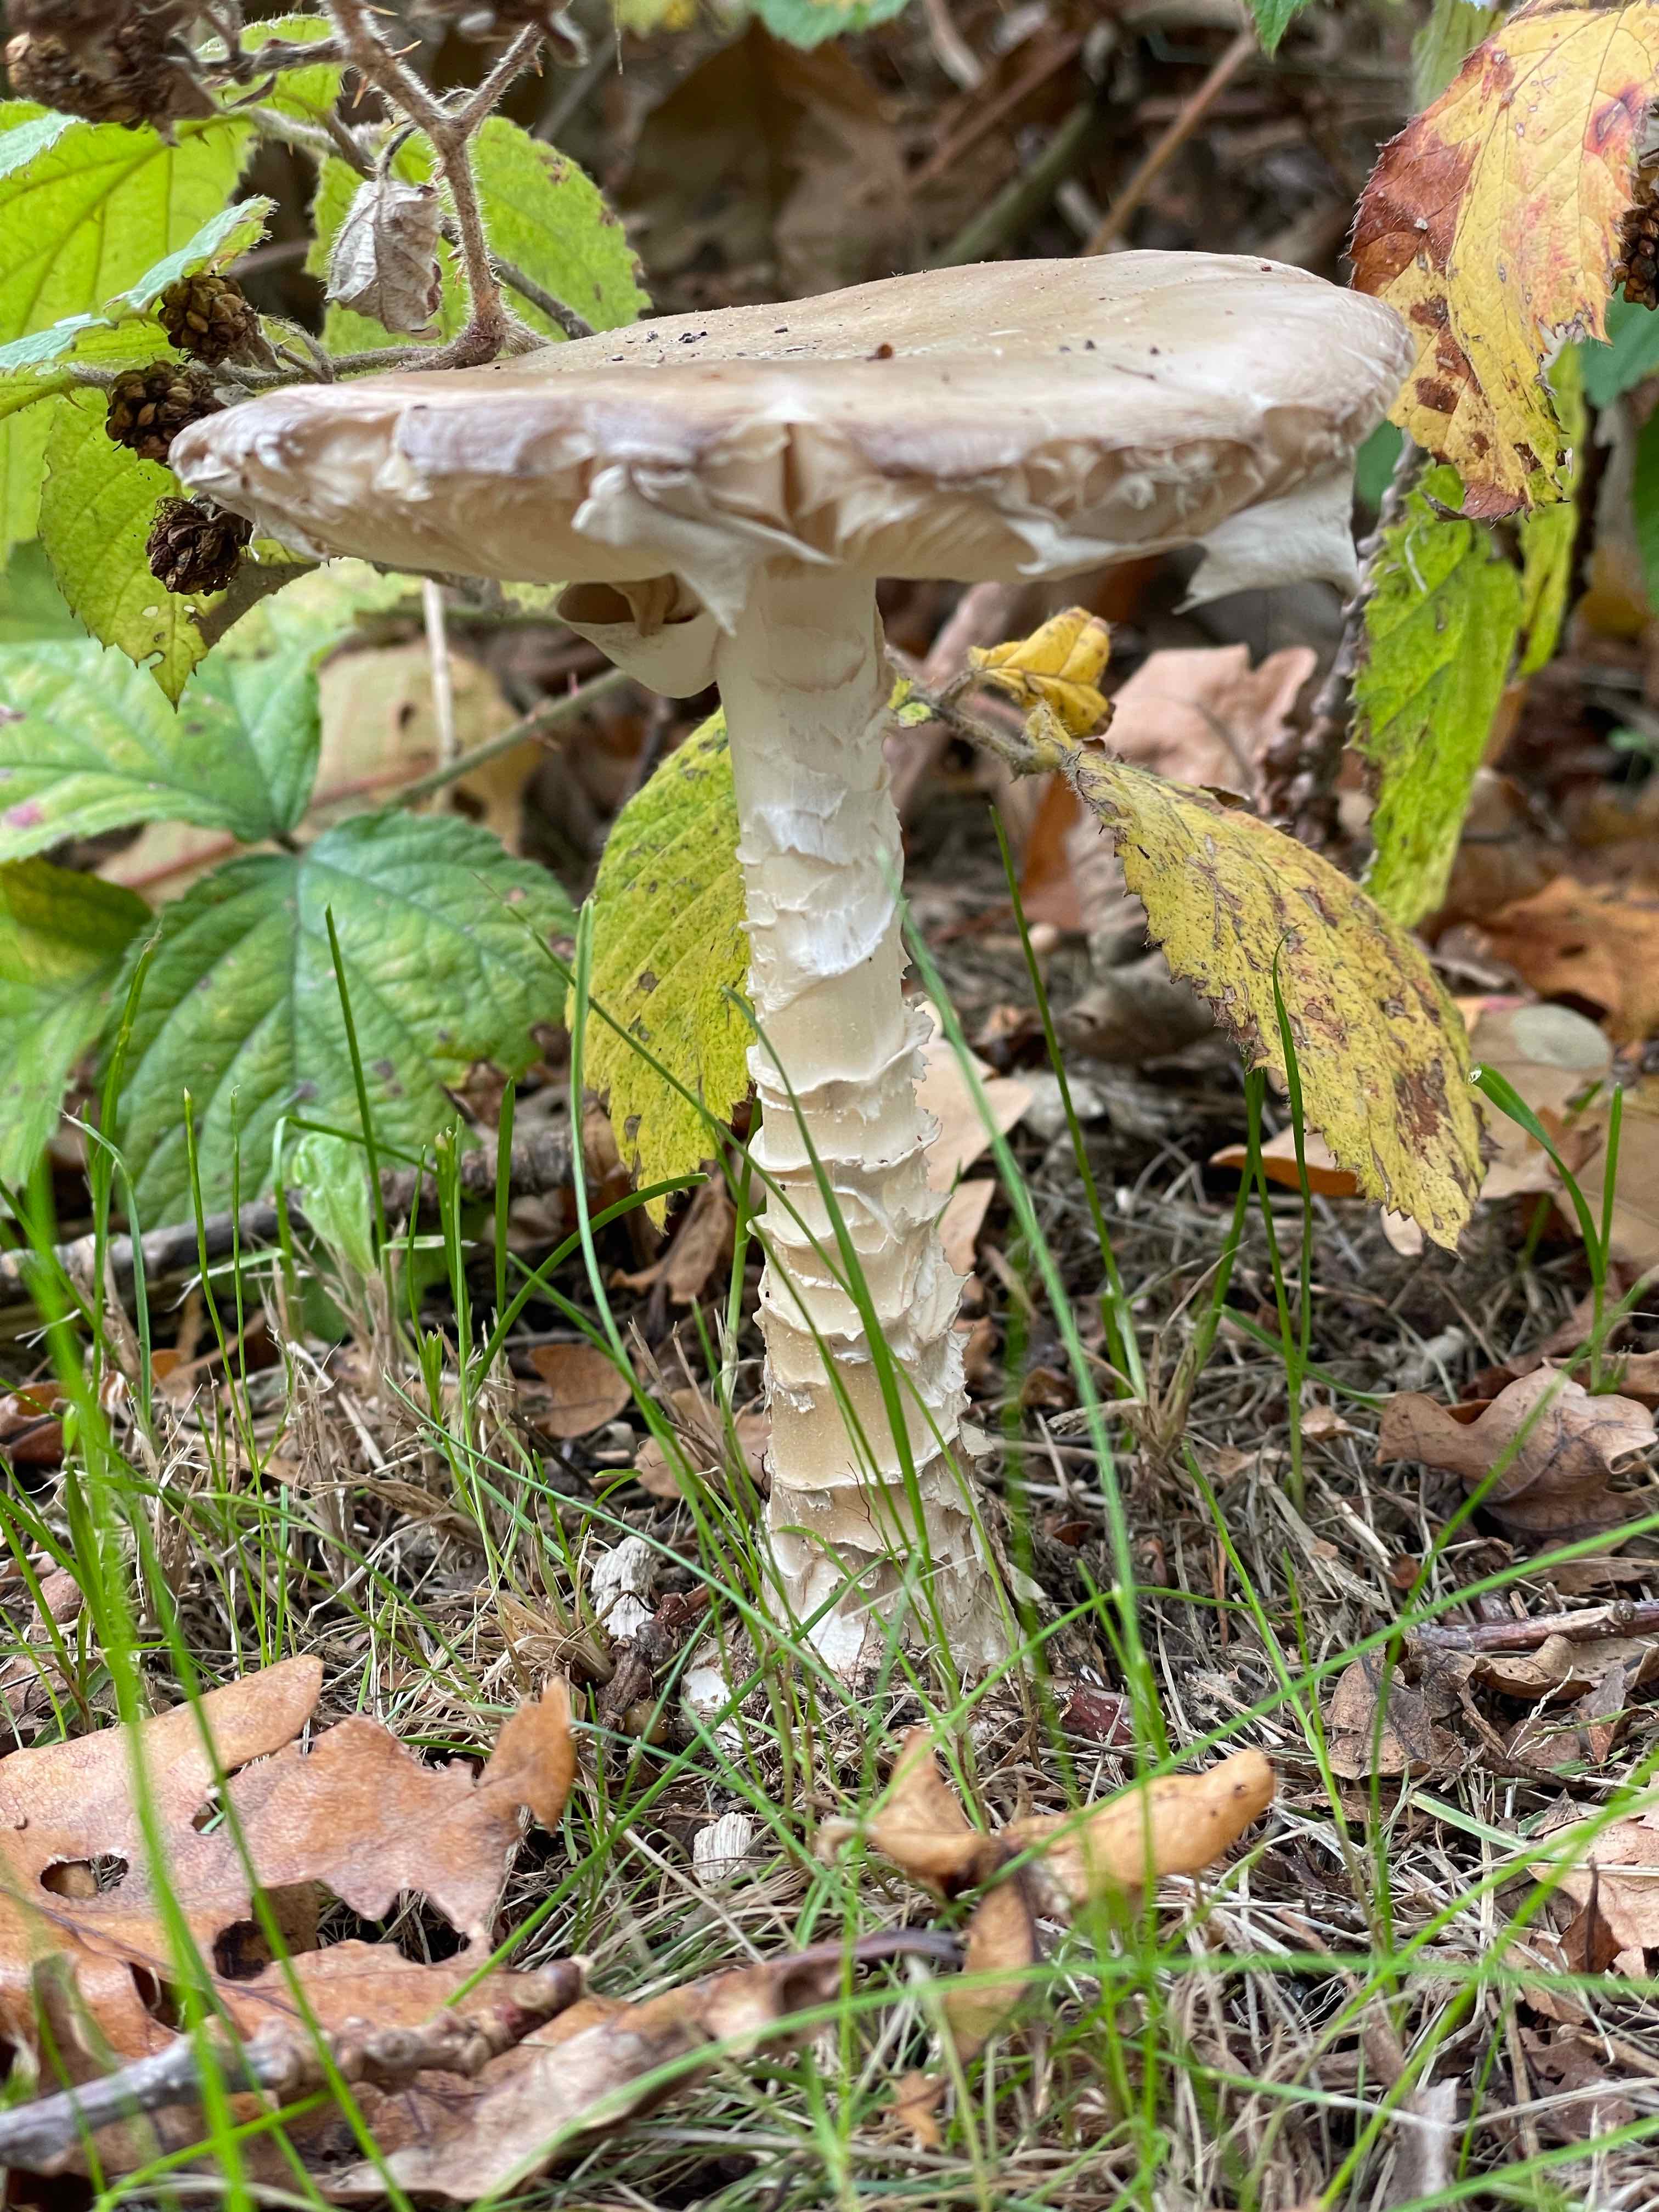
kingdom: Fungi
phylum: Basidiomycota
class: Agaricomycetes
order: Agaricales
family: Amanitaceae
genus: Amanita
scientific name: Amanita phalloides
